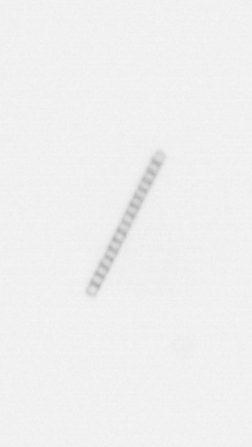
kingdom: Chromista
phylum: Ochrophyta
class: Bacillariophyceae
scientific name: Bacillariophyceae
